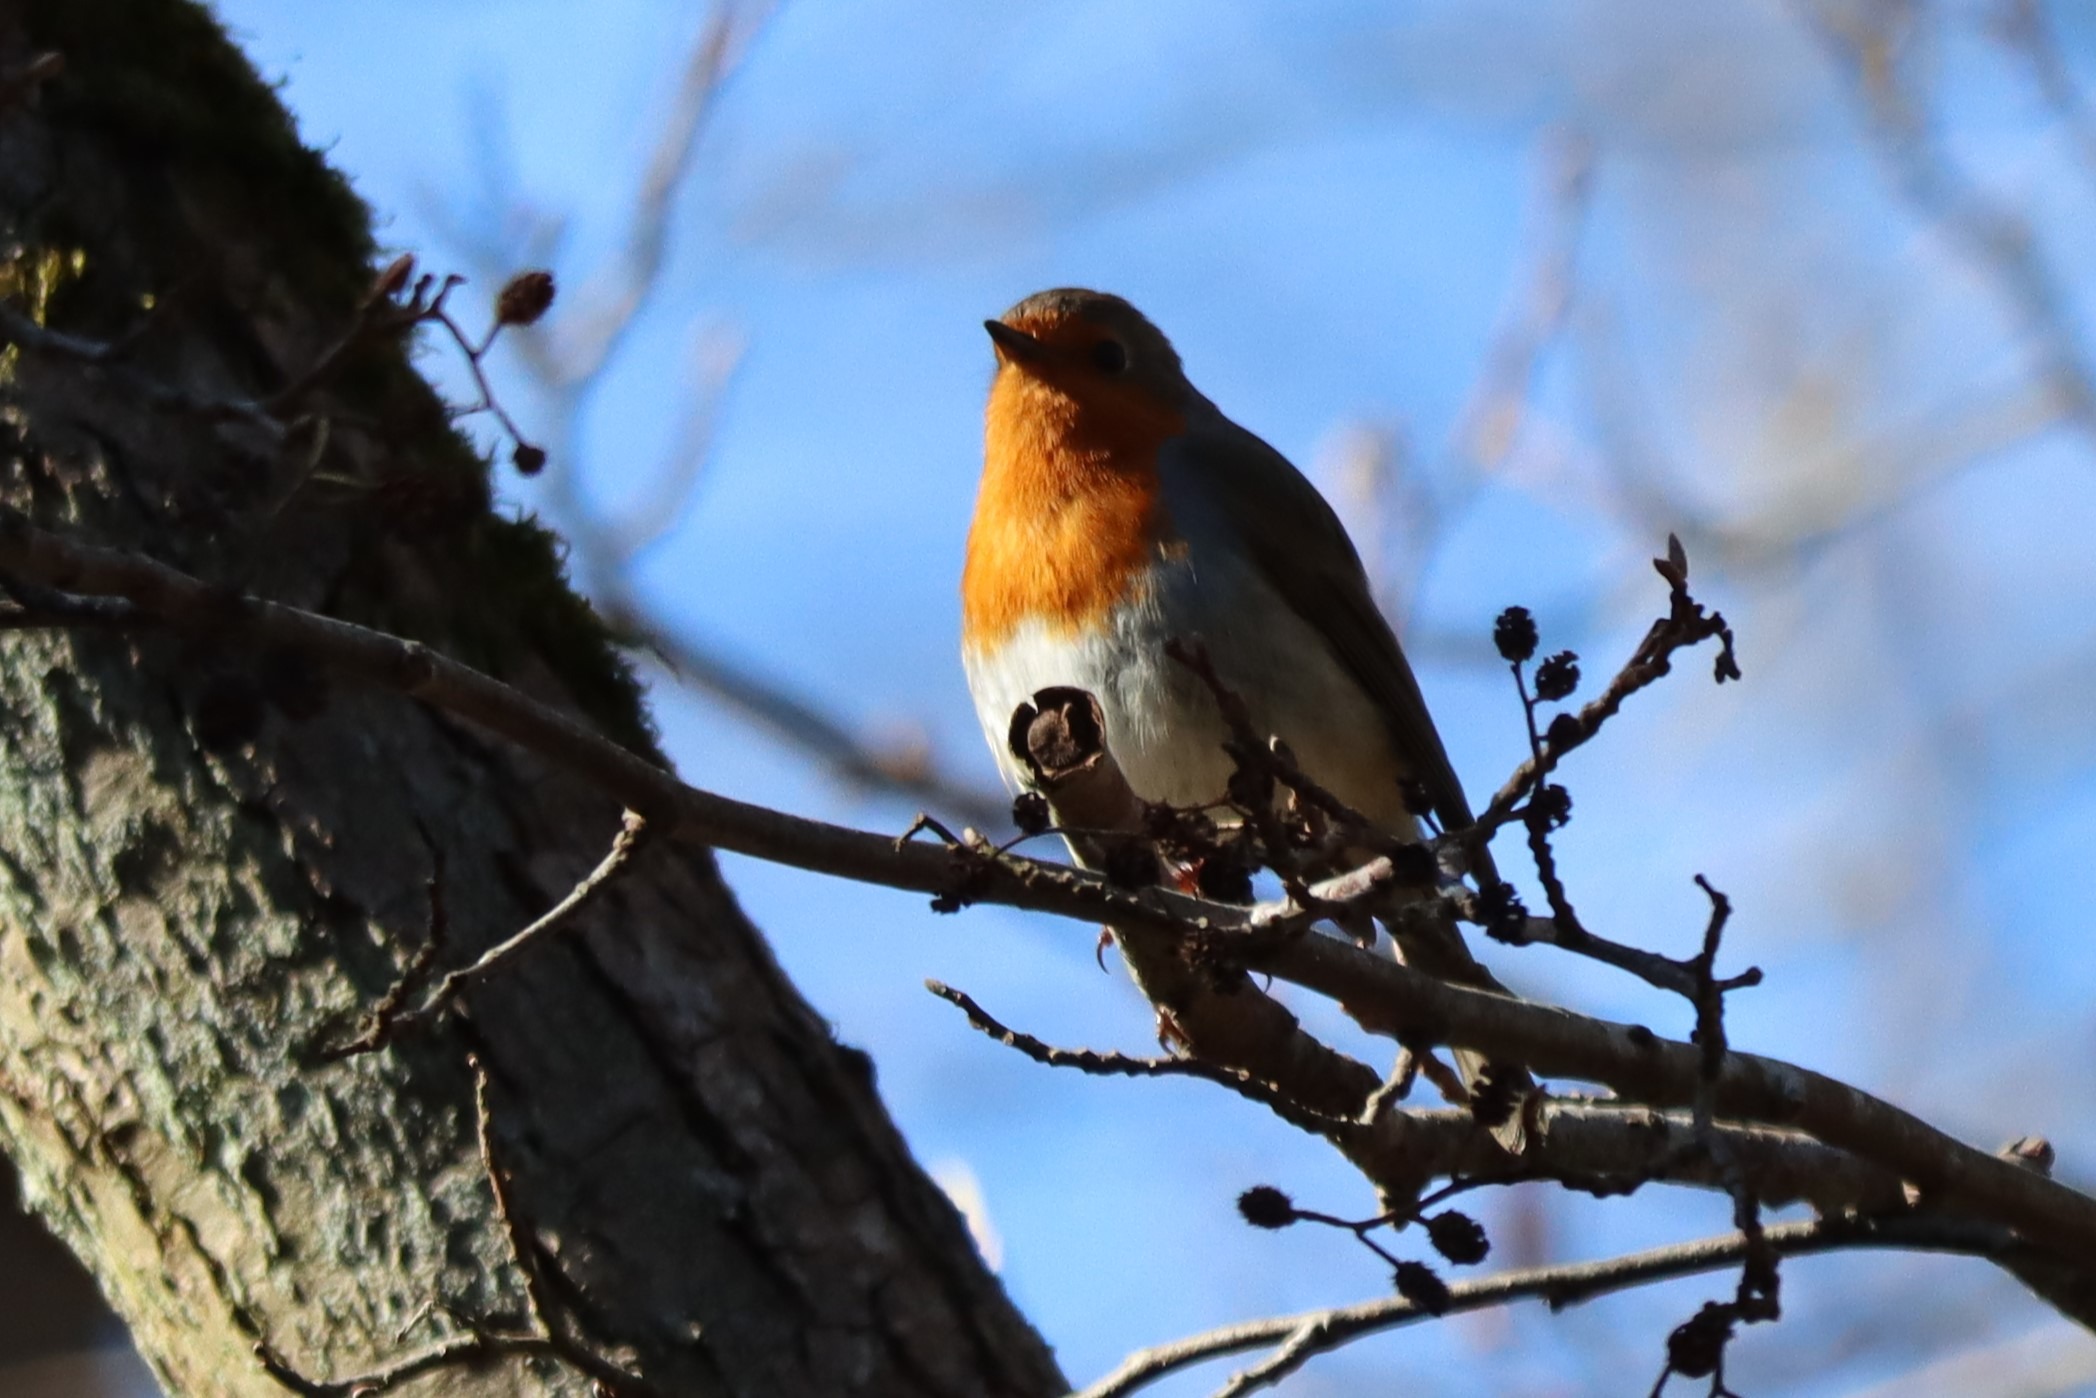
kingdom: Animalia
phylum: Chordata
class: Aves
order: Passeriformes
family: Muscicapidae
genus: Erithacus
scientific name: Erithacus rubecula
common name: Rødhals/rødkælk
